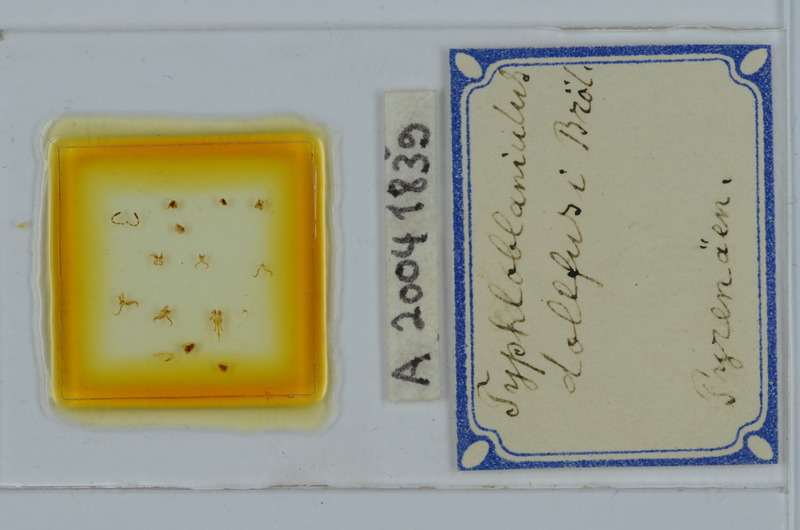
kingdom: Animalia
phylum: Arthropoda
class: Diplopoda
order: Julida
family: Blaniulidae
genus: Typhloblaniulus
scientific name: Typhloblaniulus
